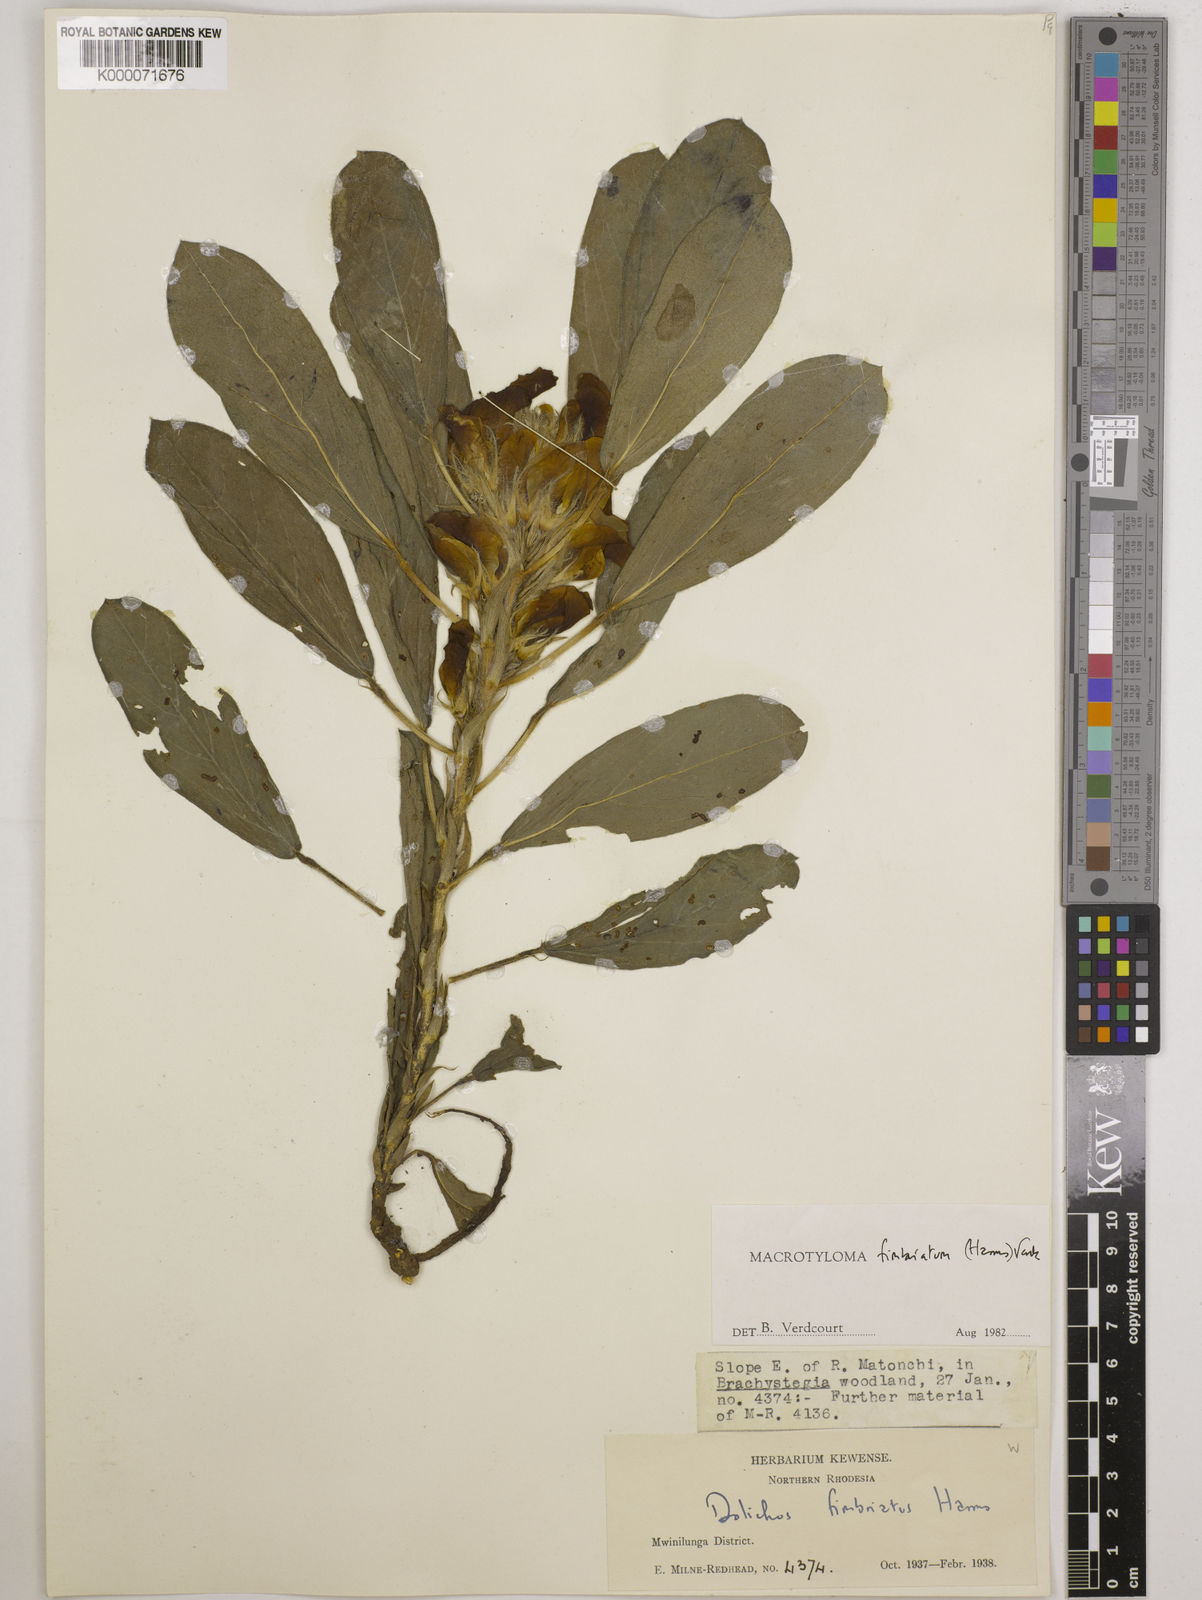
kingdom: Plantae
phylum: Tracheophyta
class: Magnoliopsida
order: Fabales
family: Fabaceae
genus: Macrotyloma
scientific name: Macrotyloma fimbriatum
